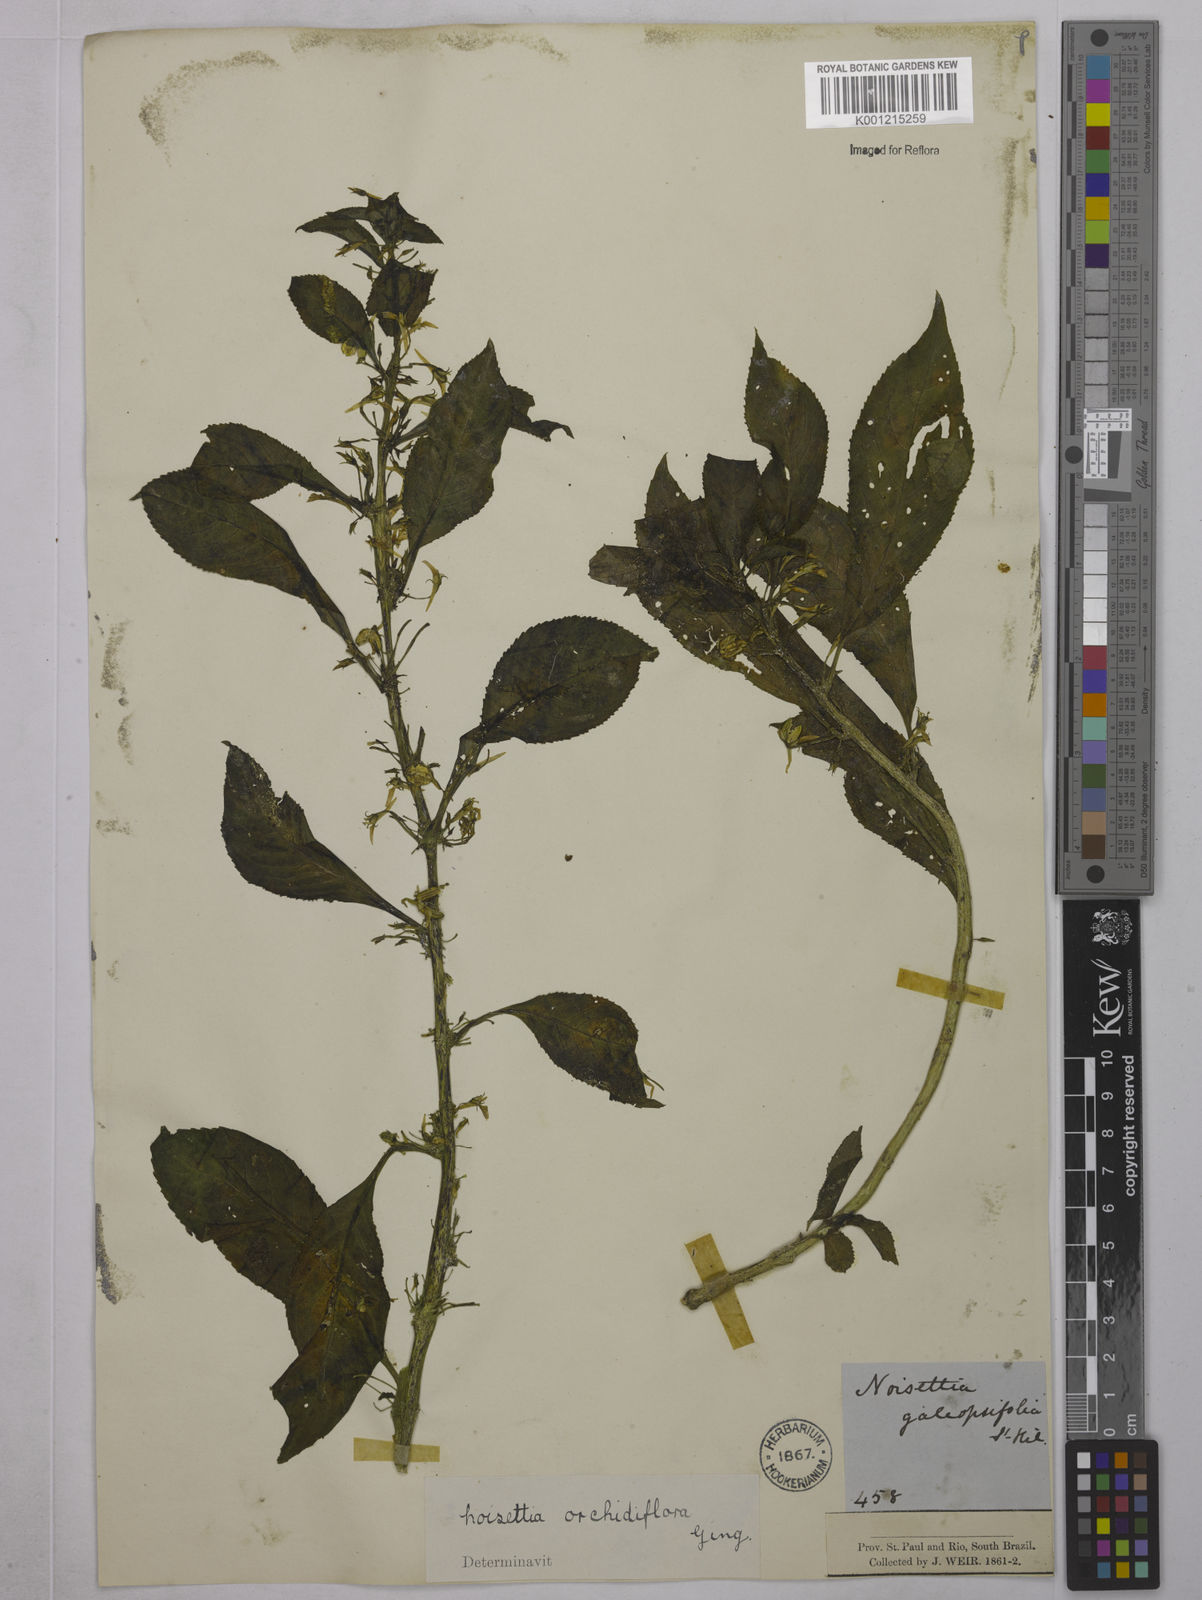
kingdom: Plantae
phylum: Tracheophyta
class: Magnoliopsida
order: Malpighiales
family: Violaceae
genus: Noisettia
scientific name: Noisettia orchidiflora
